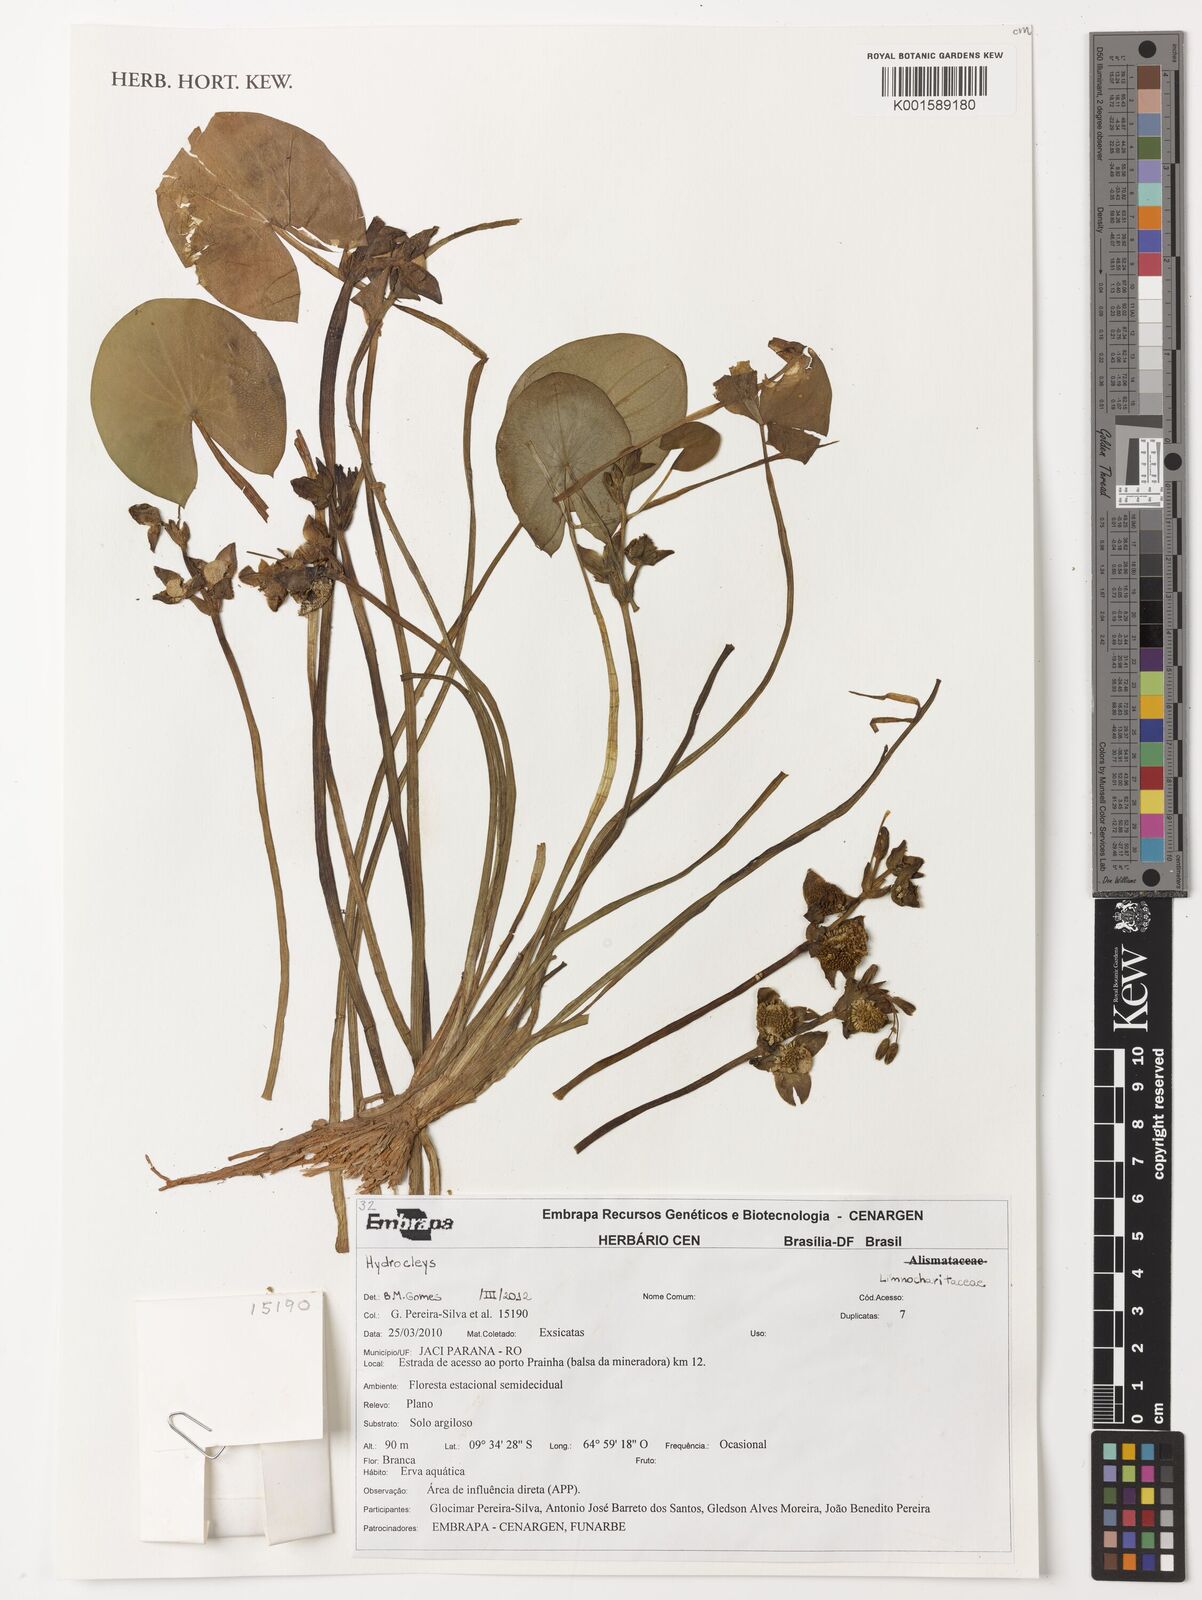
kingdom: Plantae
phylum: Tracheophyta
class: Liliopsida
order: Alismatales
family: Alismataceae
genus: Hydrocleys
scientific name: Hydrocleys
